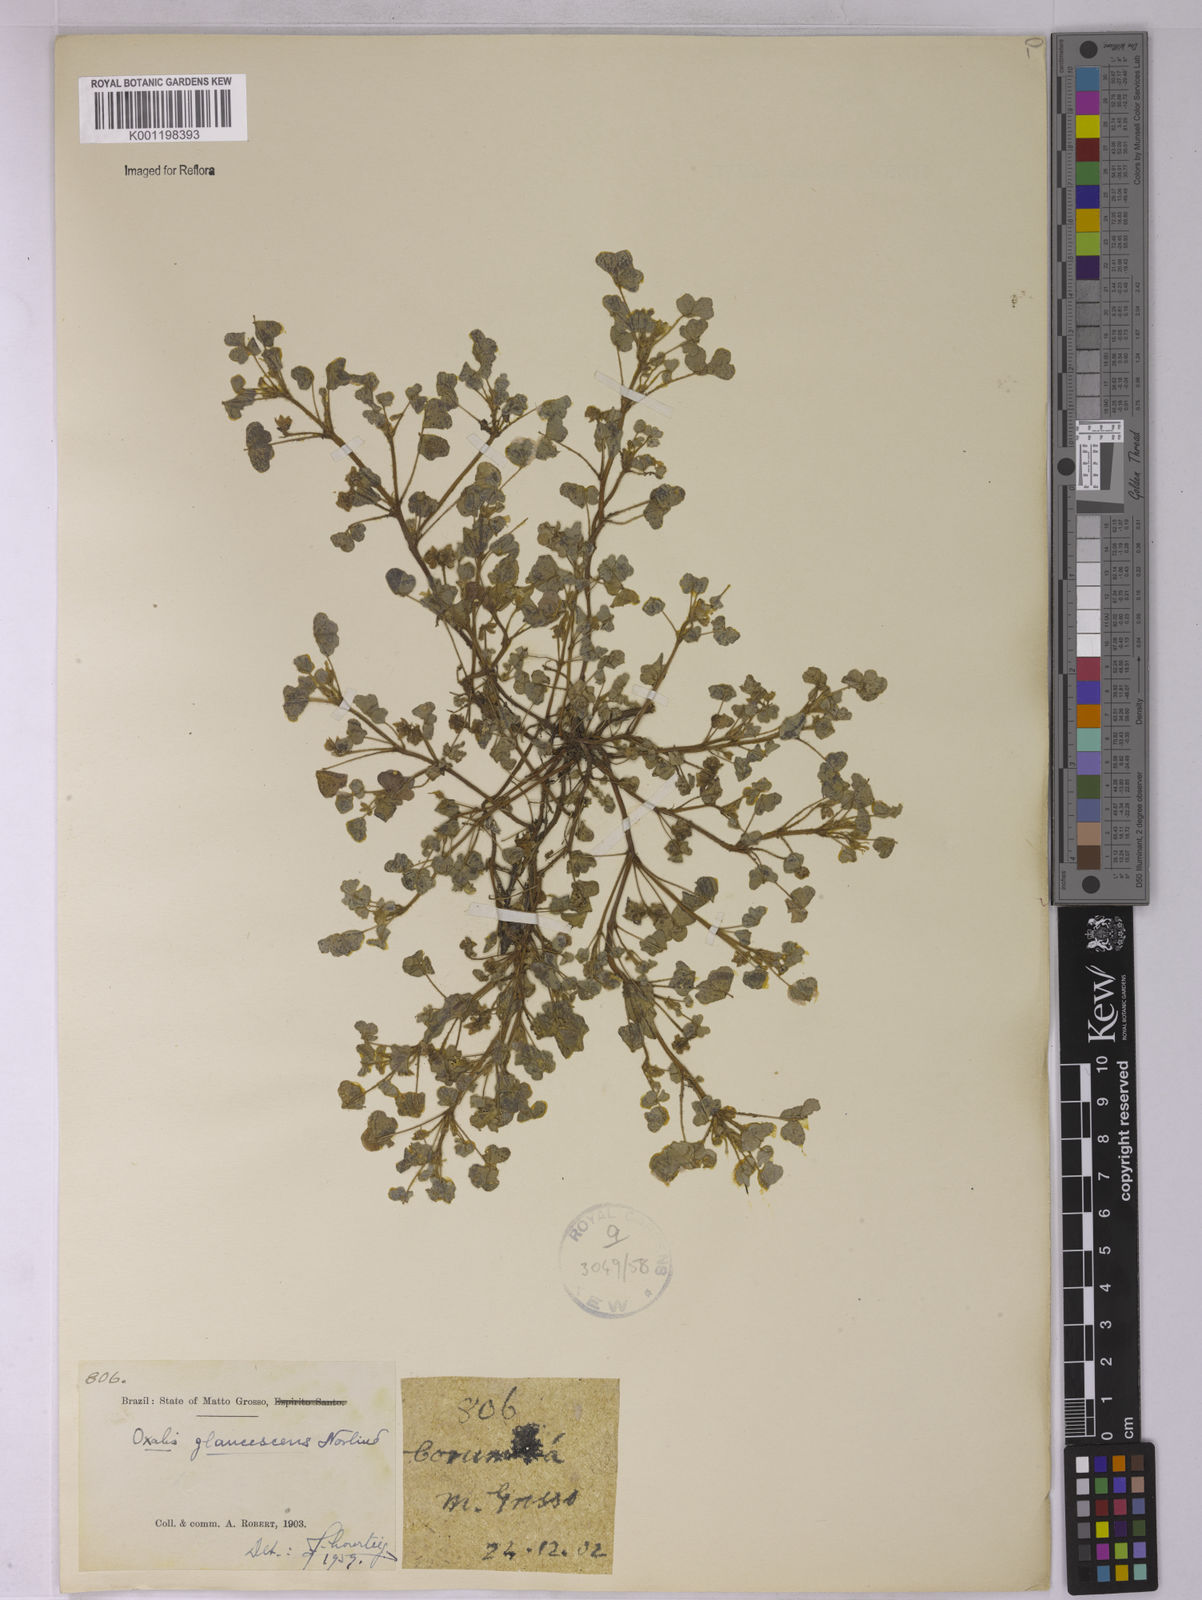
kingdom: Plantae
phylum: Tracheophyta
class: Magnoliopsida
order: Oxalidales
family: Oxalidaceae
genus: Oxalis
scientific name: Oxalis glaucescens
